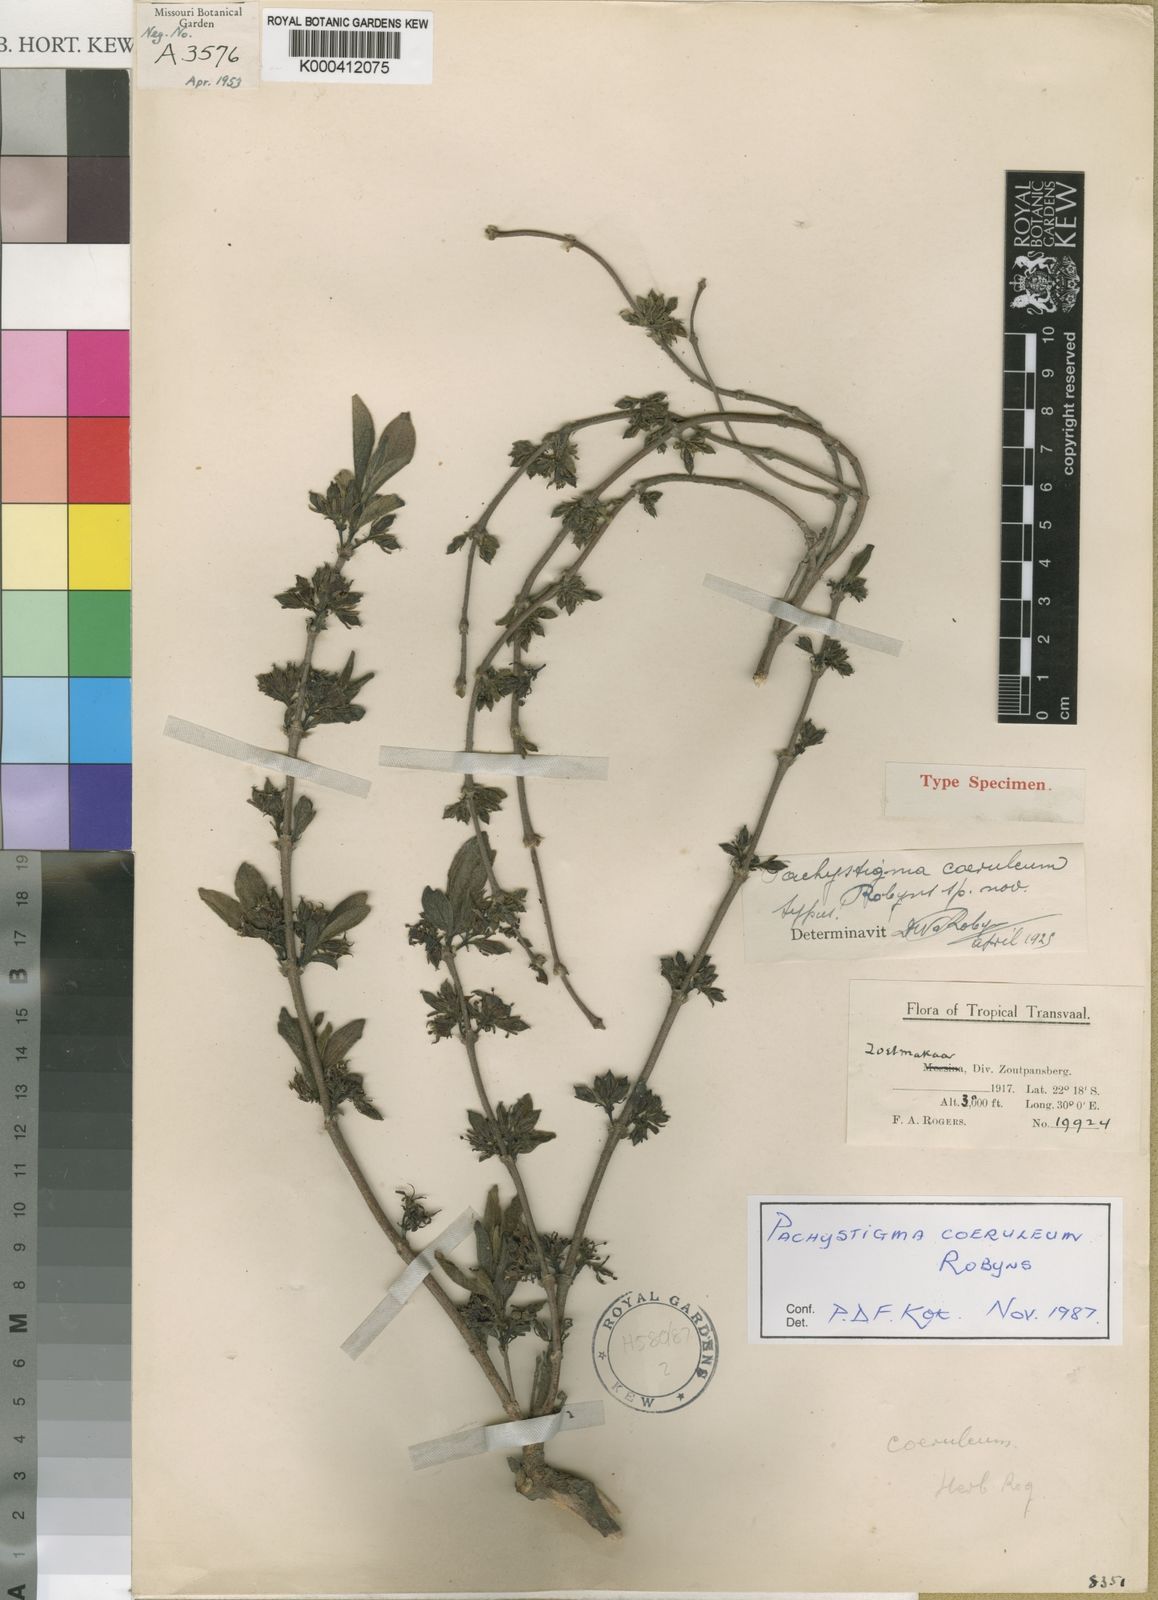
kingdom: Plantae
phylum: Tracheophyta
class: Magnoliopsida
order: Gentianales
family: Rubiaceae
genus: Vangueria
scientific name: Vangueria coerulea
